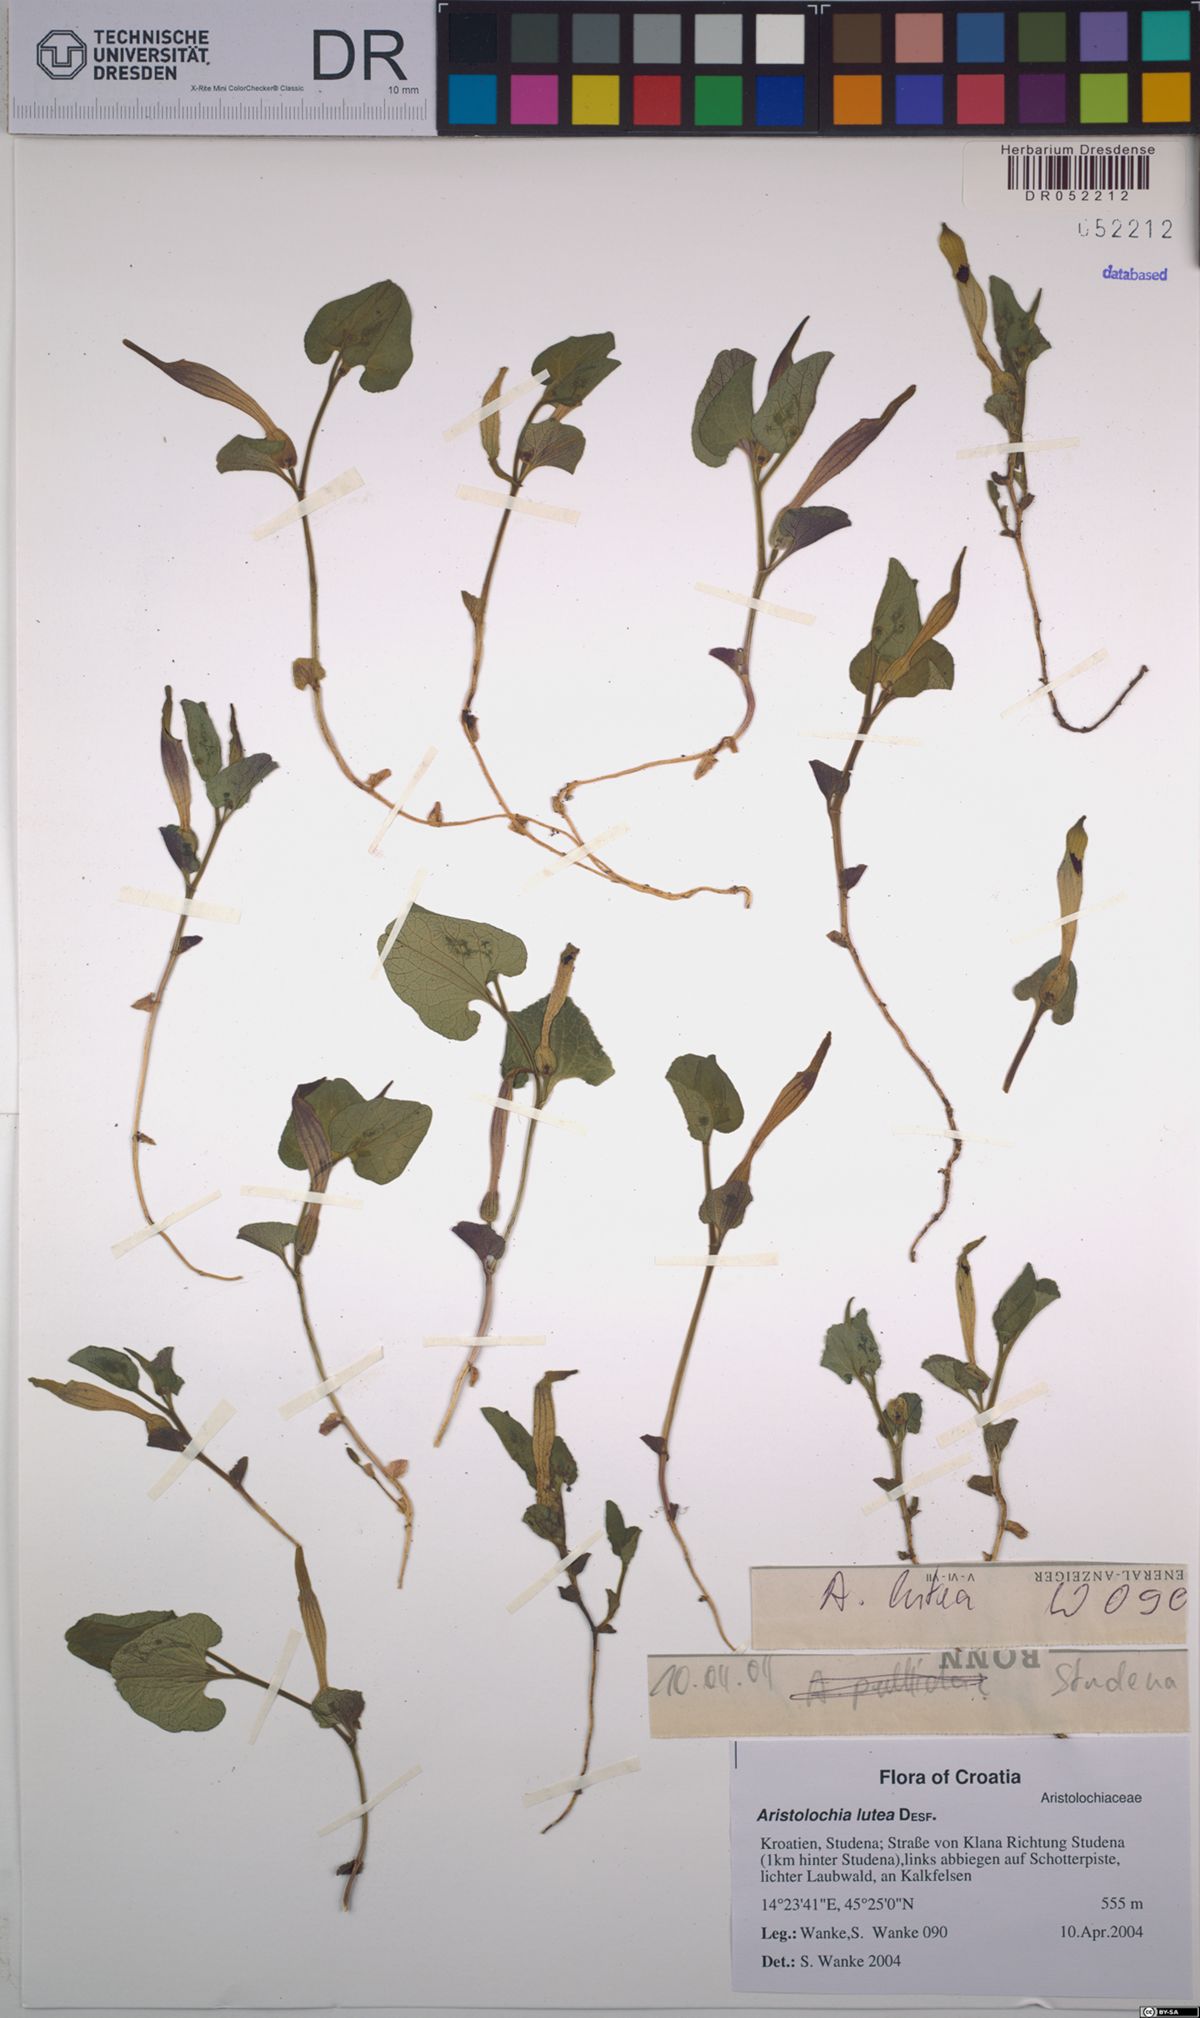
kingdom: Plantae
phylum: Tracheophyta
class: Magnoliopsida
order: Piperales
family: Aristolochiaceae
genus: Aristolochia
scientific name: Aristolochia lutea
